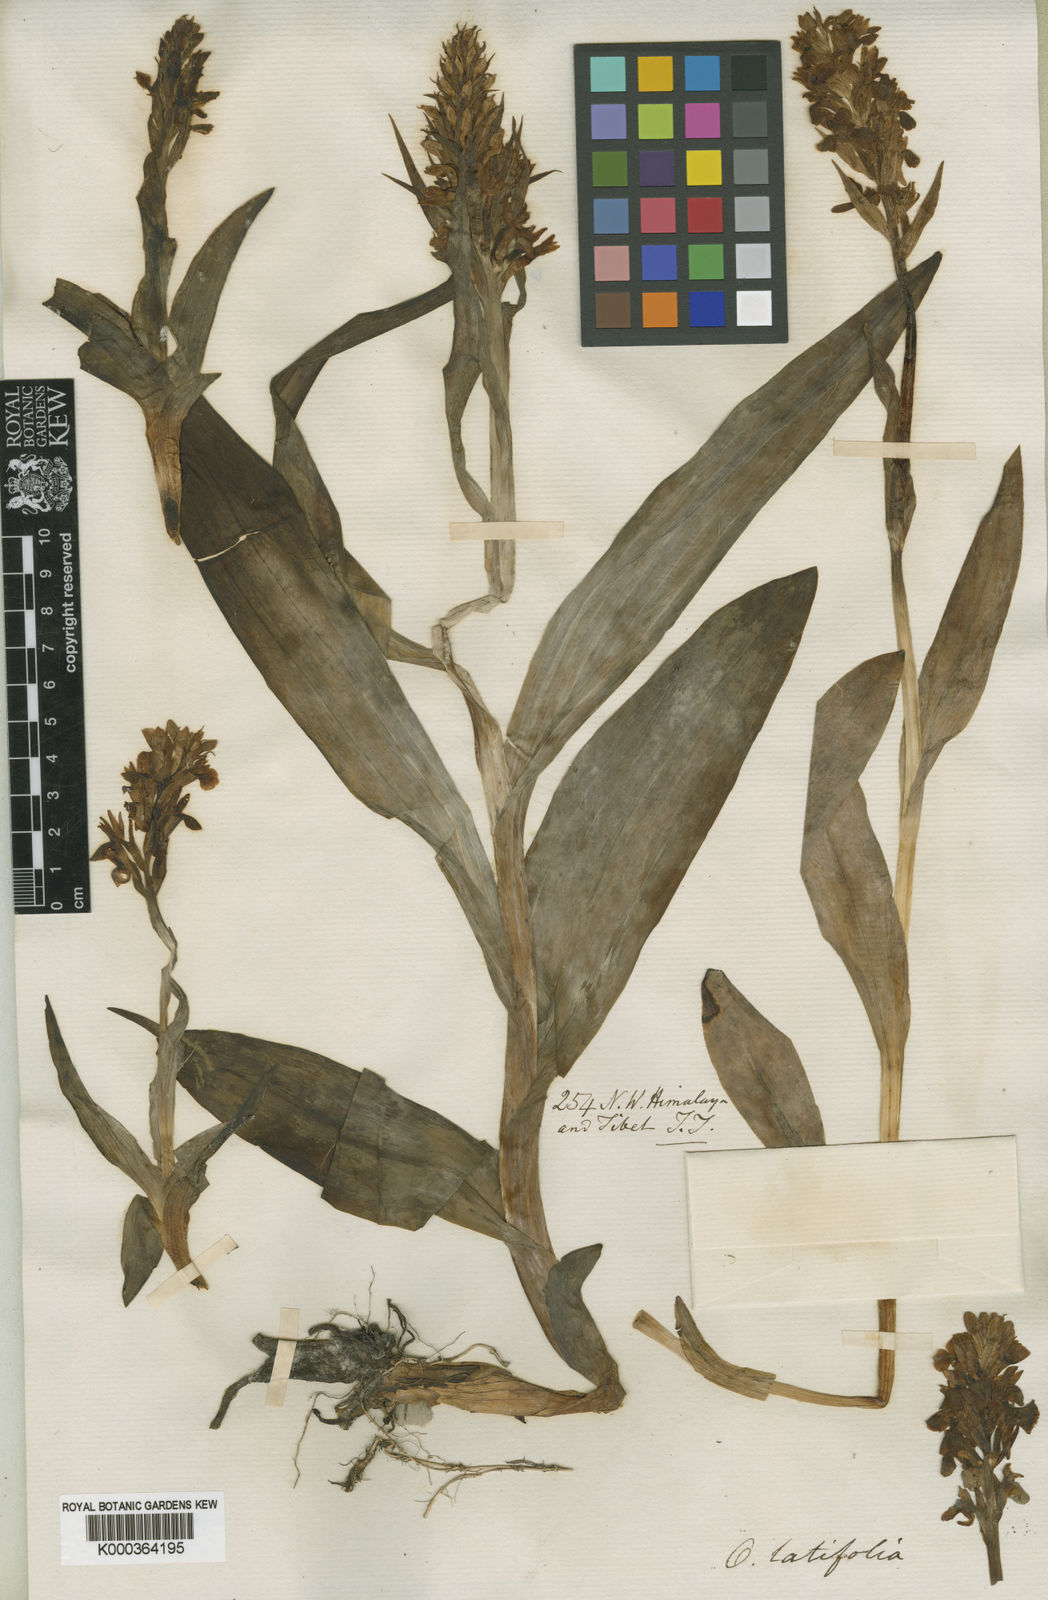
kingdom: Plantae
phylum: Tracheophyta
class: Liliopsida
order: Asparagales
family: Orchidaceae
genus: Dactylorhiza
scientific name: Dactylorhiza
